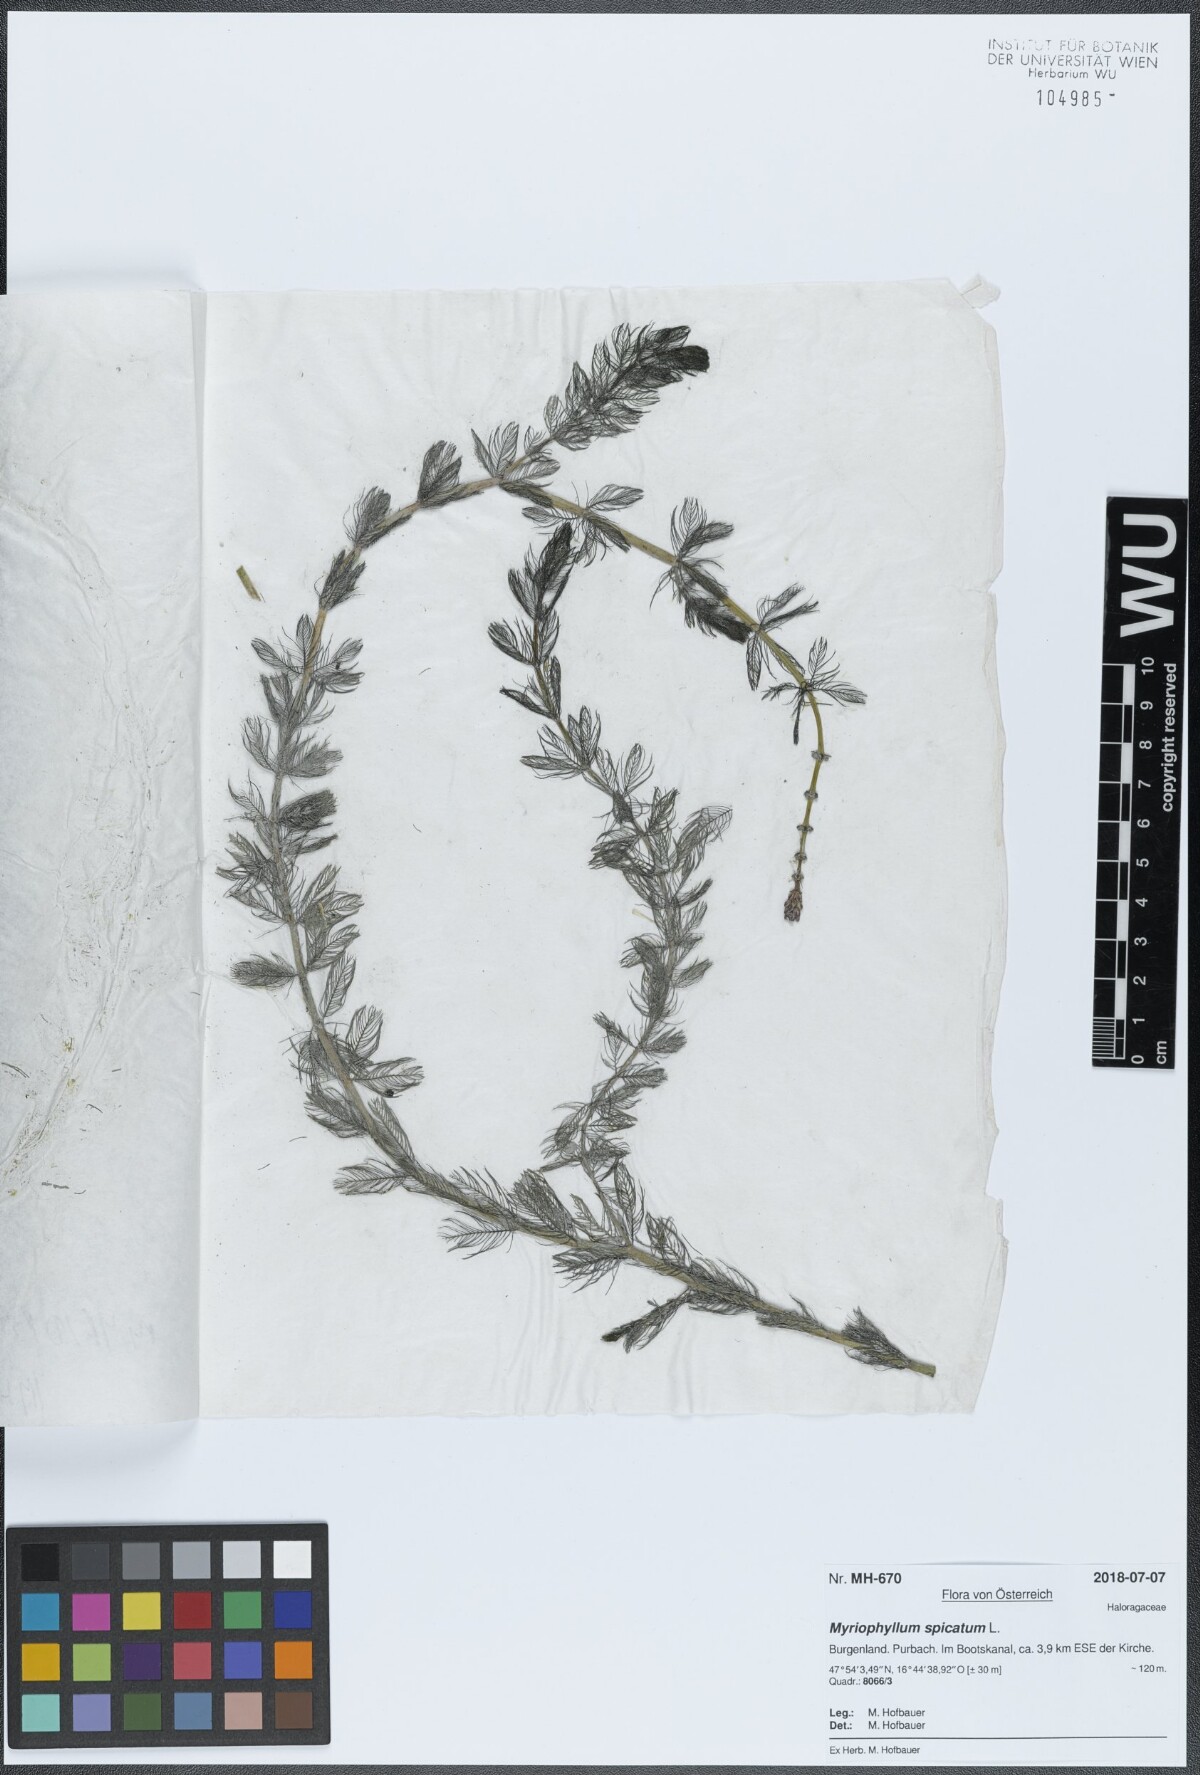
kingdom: Plantae
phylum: Tracheophyta
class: Magnoliopsida
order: Saxifragales
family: Haloragaceae
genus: Myriophyllum
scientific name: Myriophyllum spicatum
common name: Spiked water-milfoil
